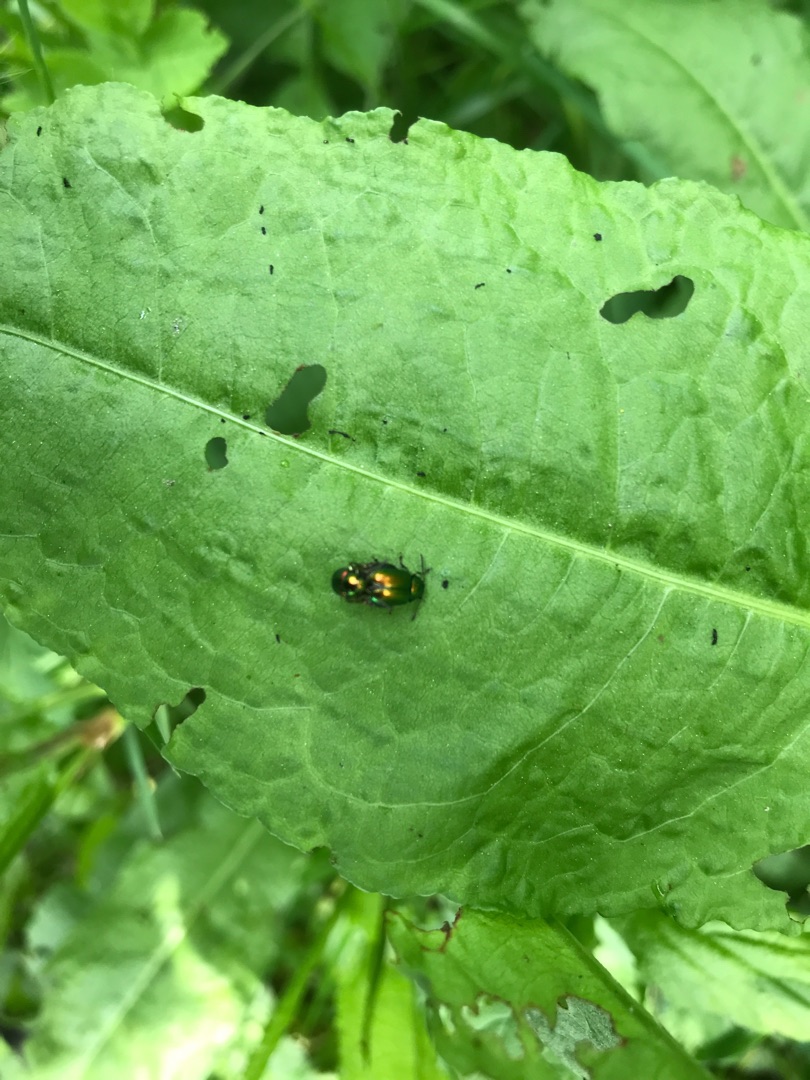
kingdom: Animalia
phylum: Arthropoda
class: Insecta
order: Coleoptera
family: Chrysomelidae
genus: Gastrophysa
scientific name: Gastrophysa viridula
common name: Skræppebladbille
